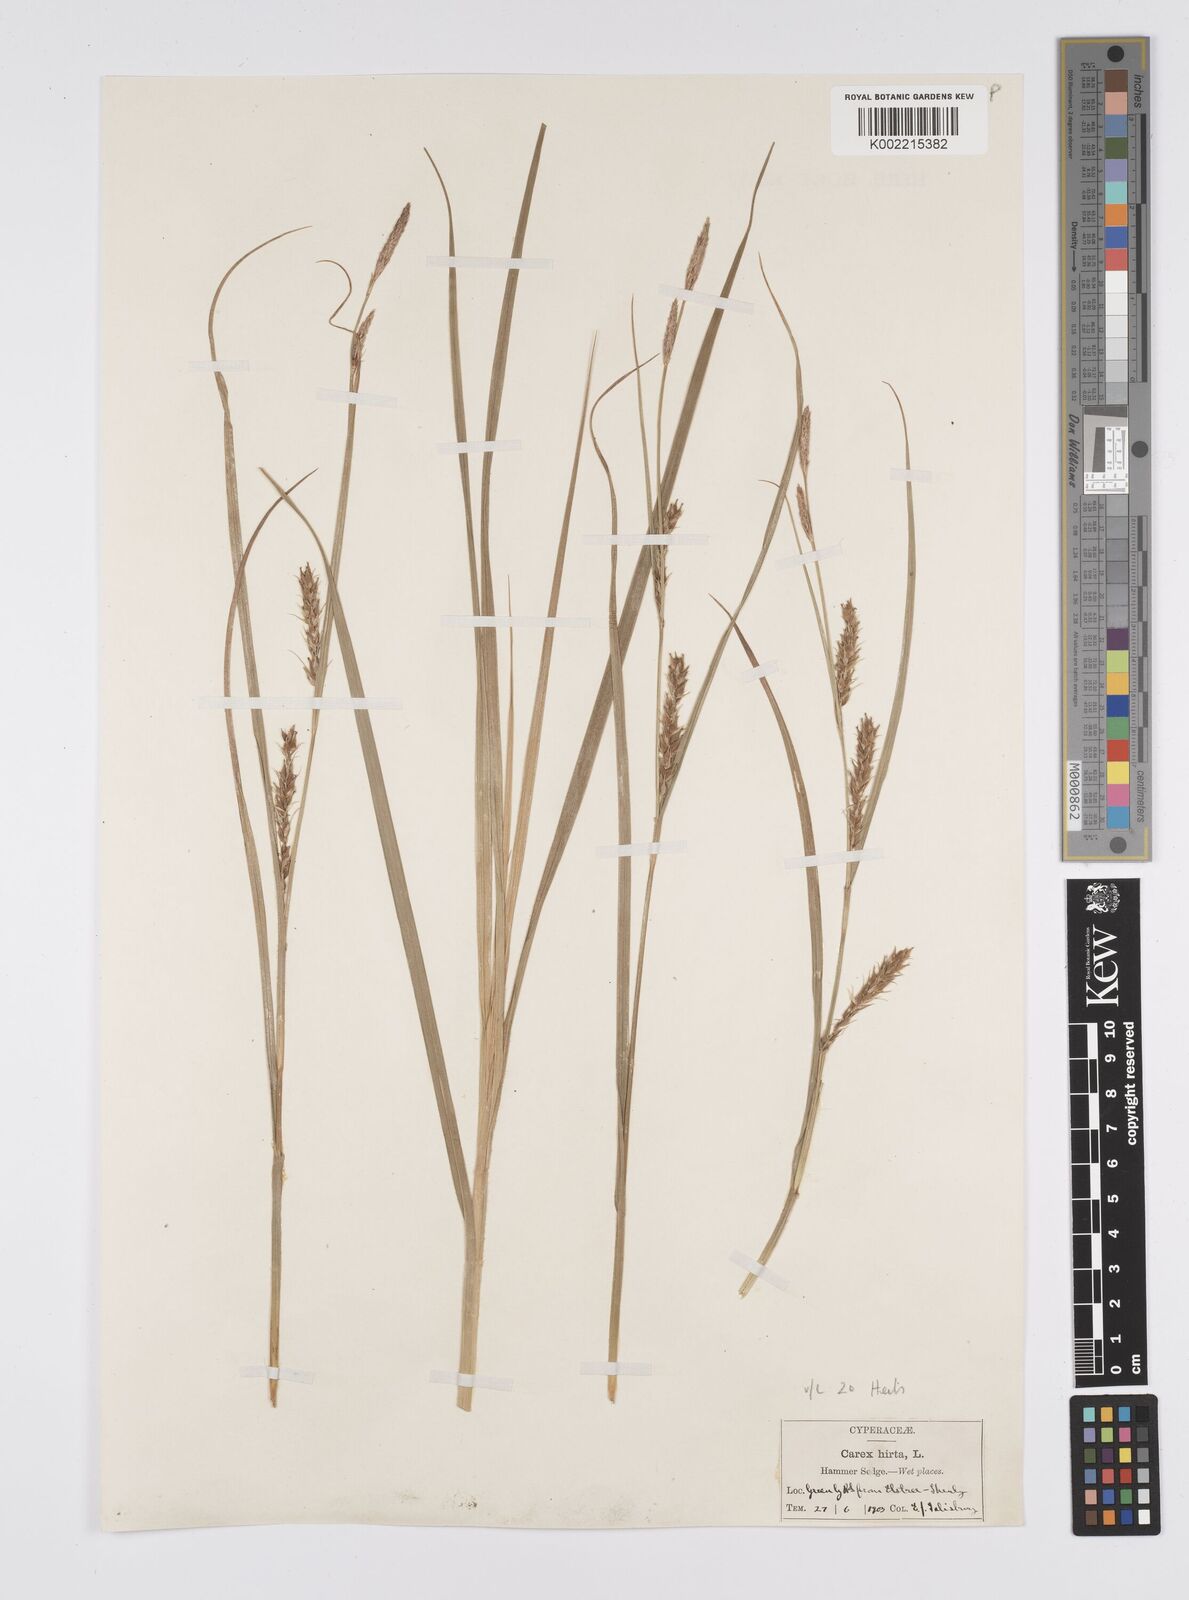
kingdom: Plantae
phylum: Tracheophyta
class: Liliopsida
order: Poales
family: Cyperaceae
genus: Carex
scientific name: Carex hirta
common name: Hairy sedge
